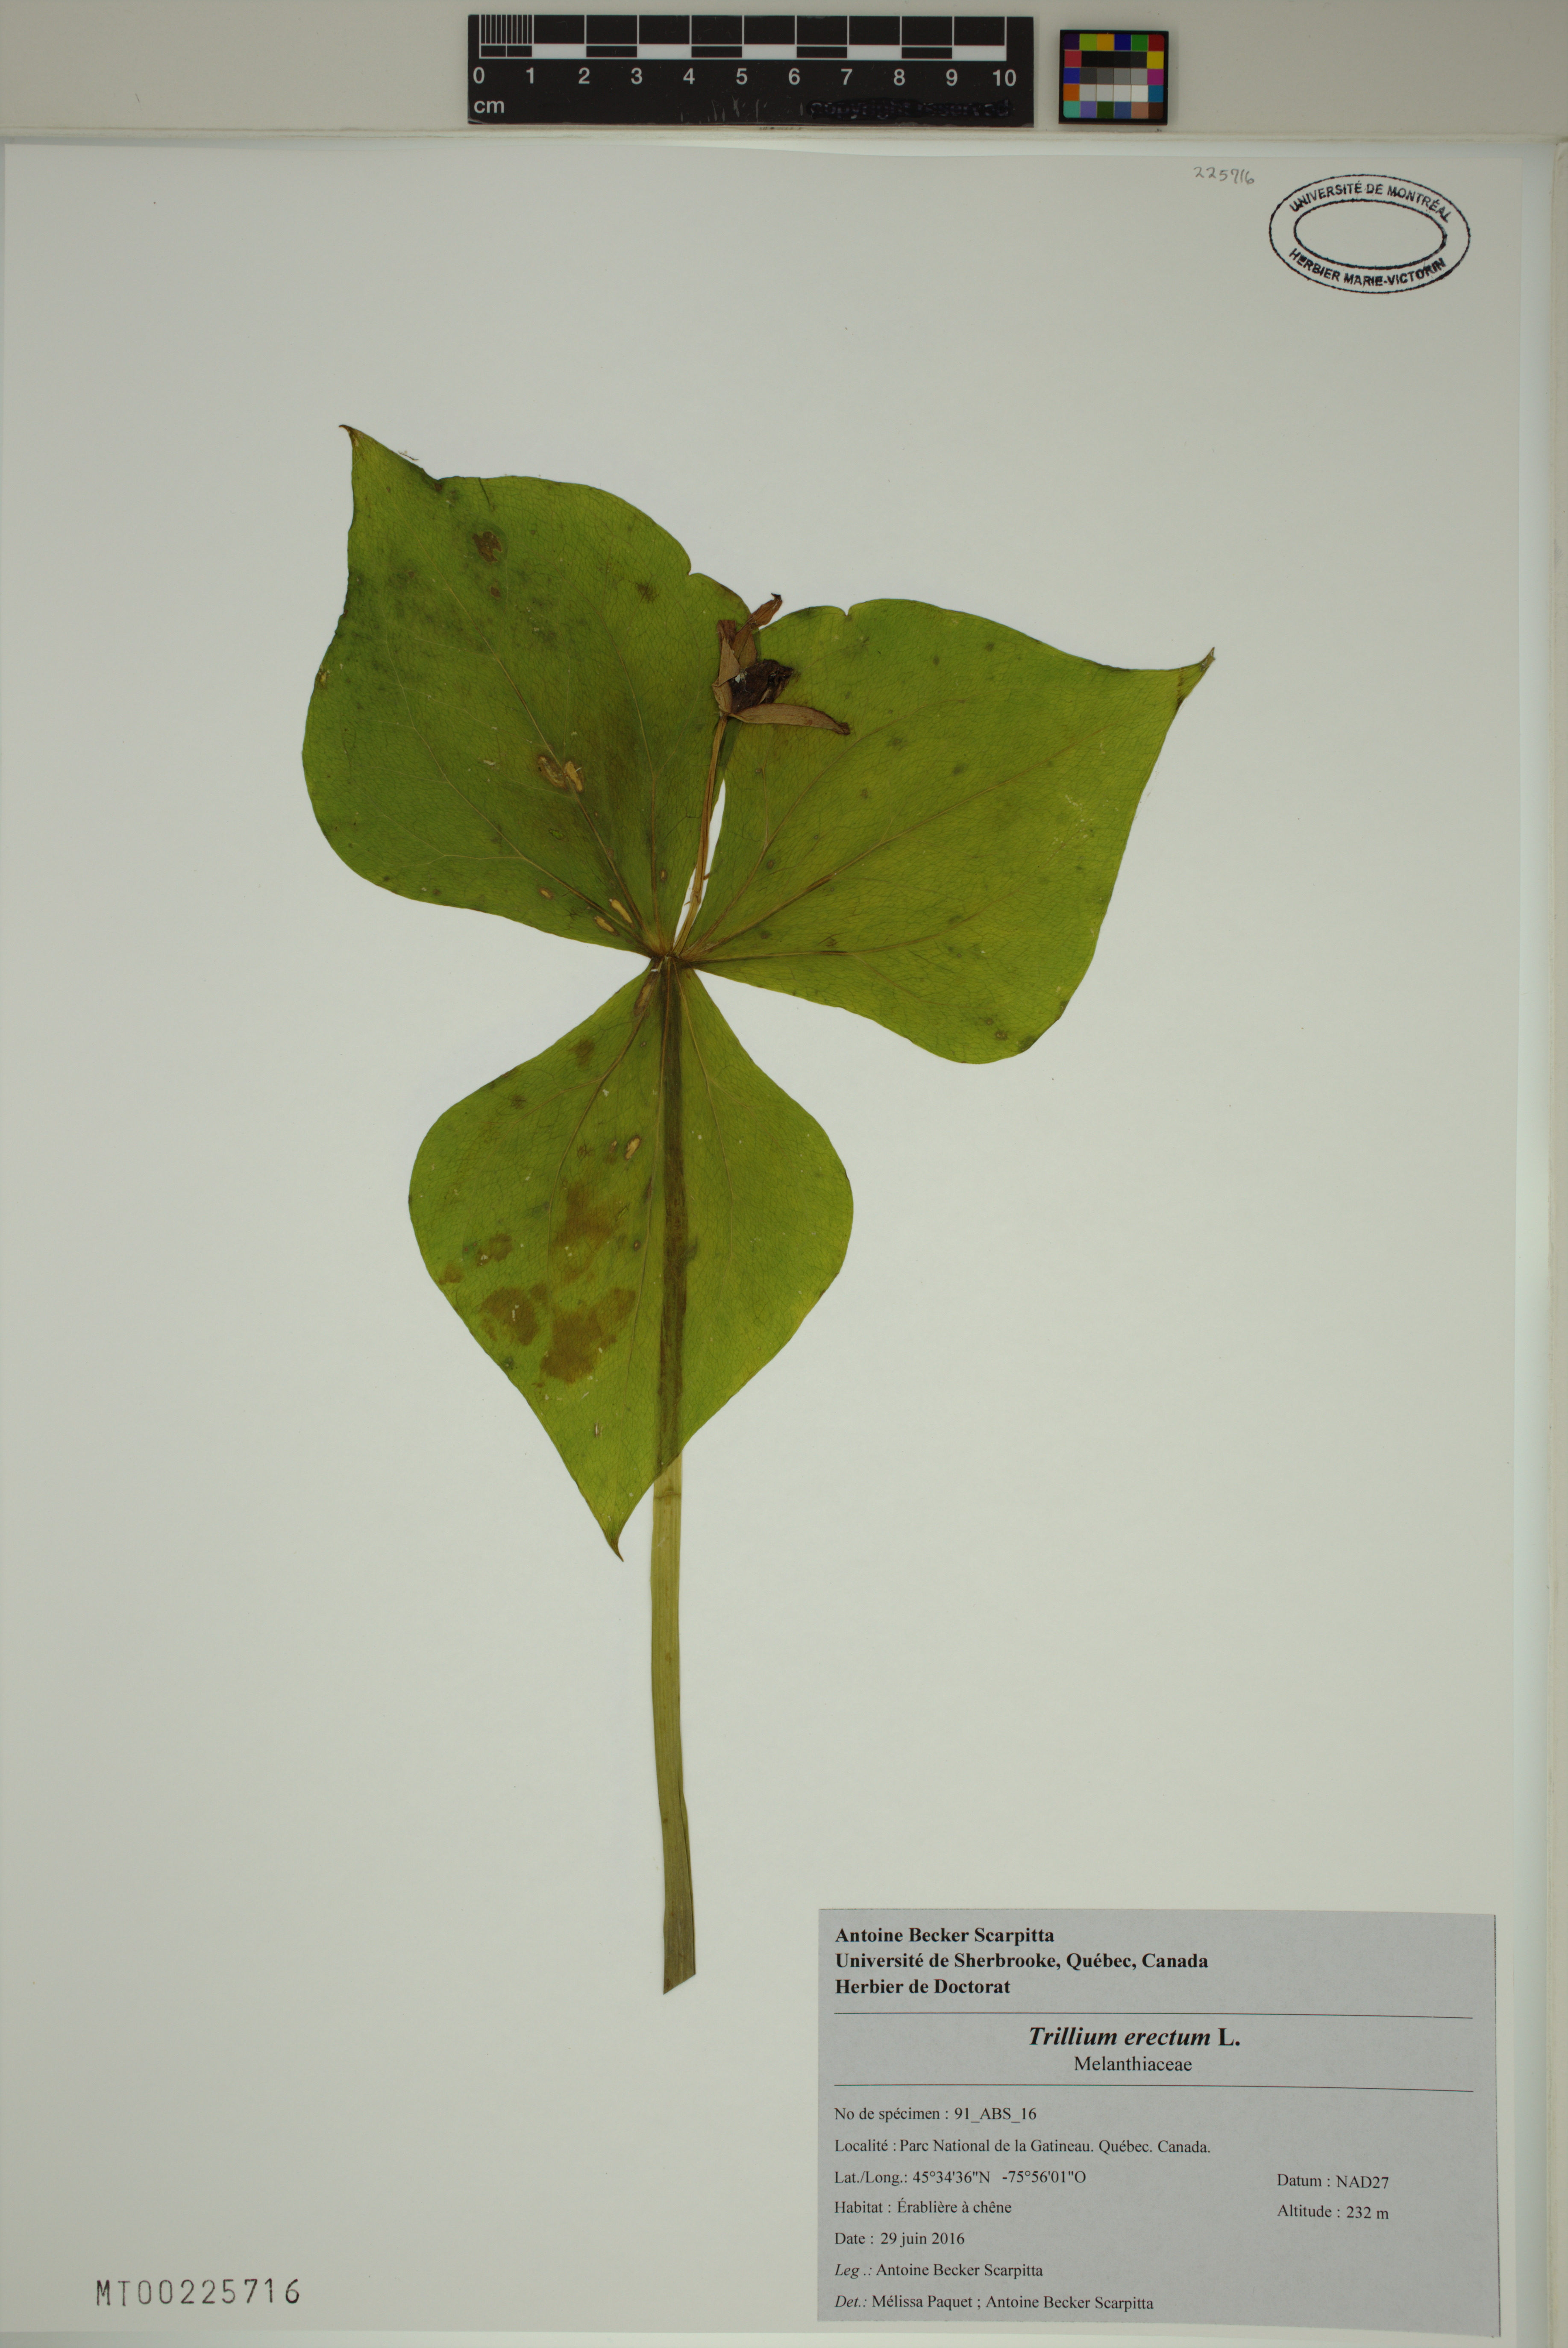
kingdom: Plantae
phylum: Tracheophyta
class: Liliopsida
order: Liliales
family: Melanthiaceae
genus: Trillium
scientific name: Trillium erectum
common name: Purple trillium
